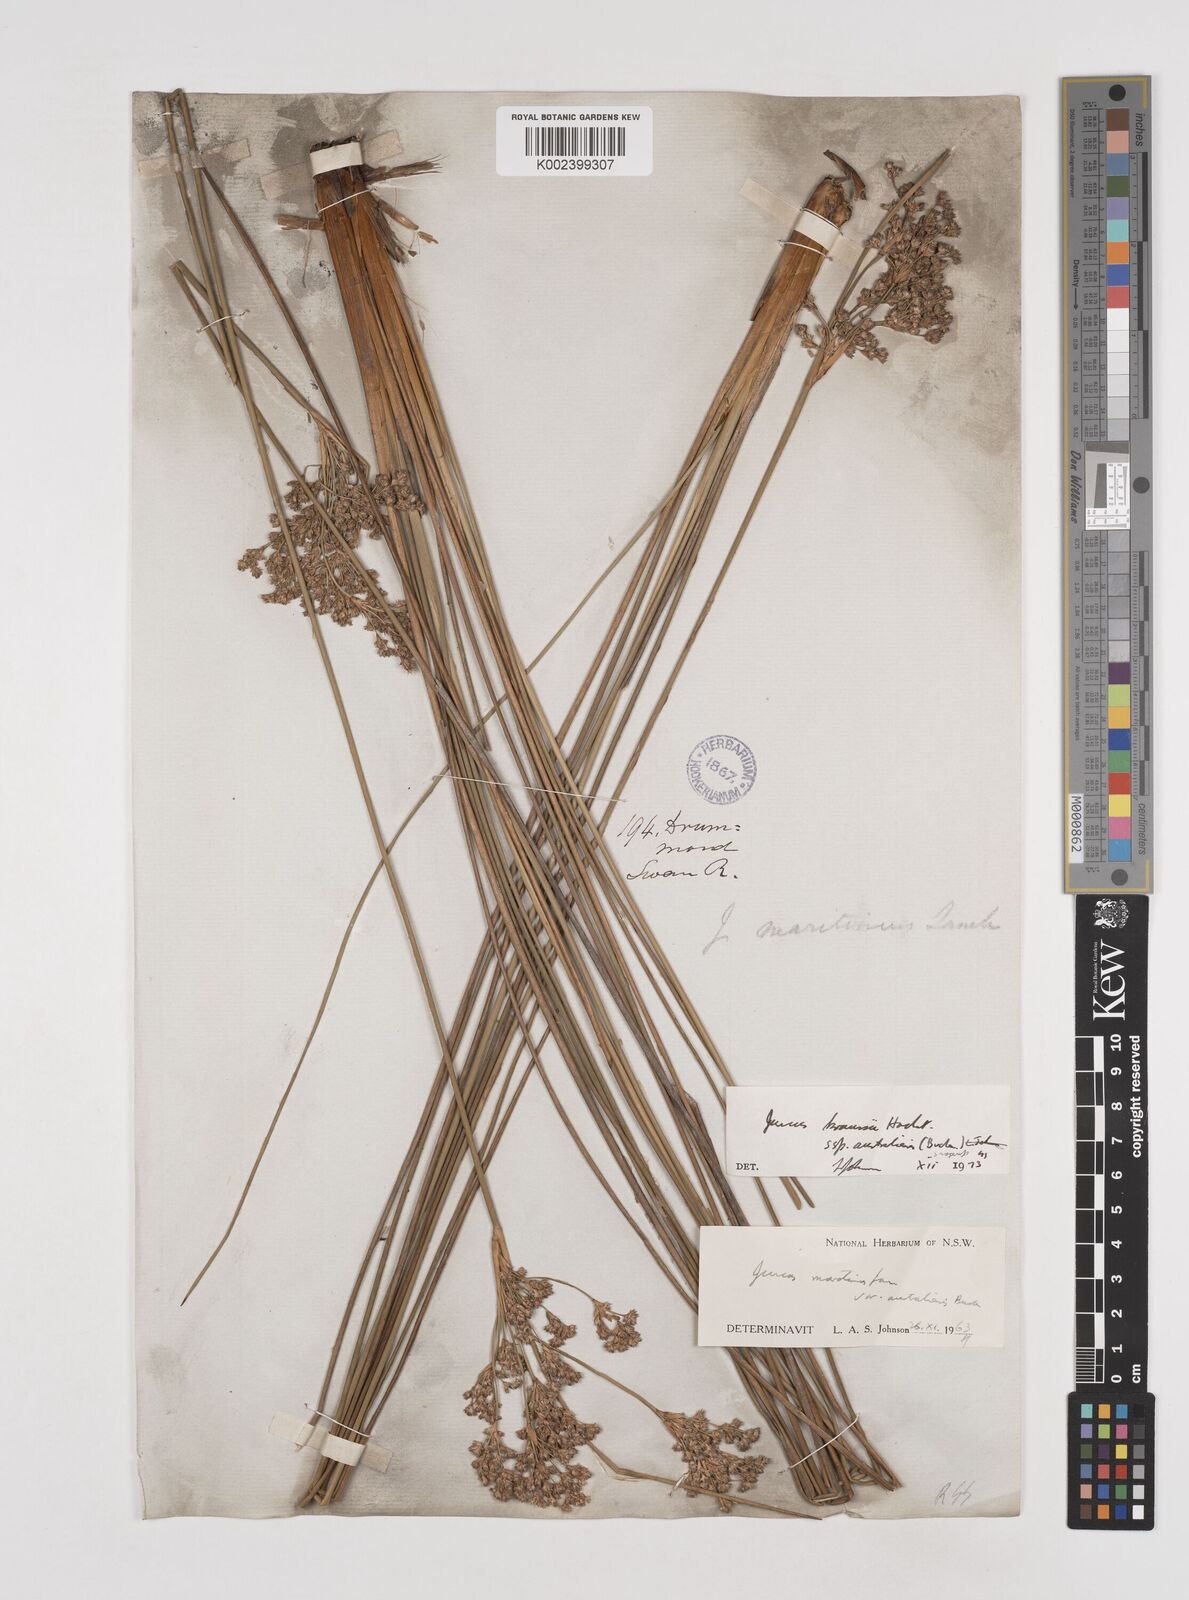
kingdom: Plantae
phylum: Tracheophyta
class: Liliopsida
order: Poales
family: Juncaceae
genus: Juncus
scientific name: Juncus kraussii
